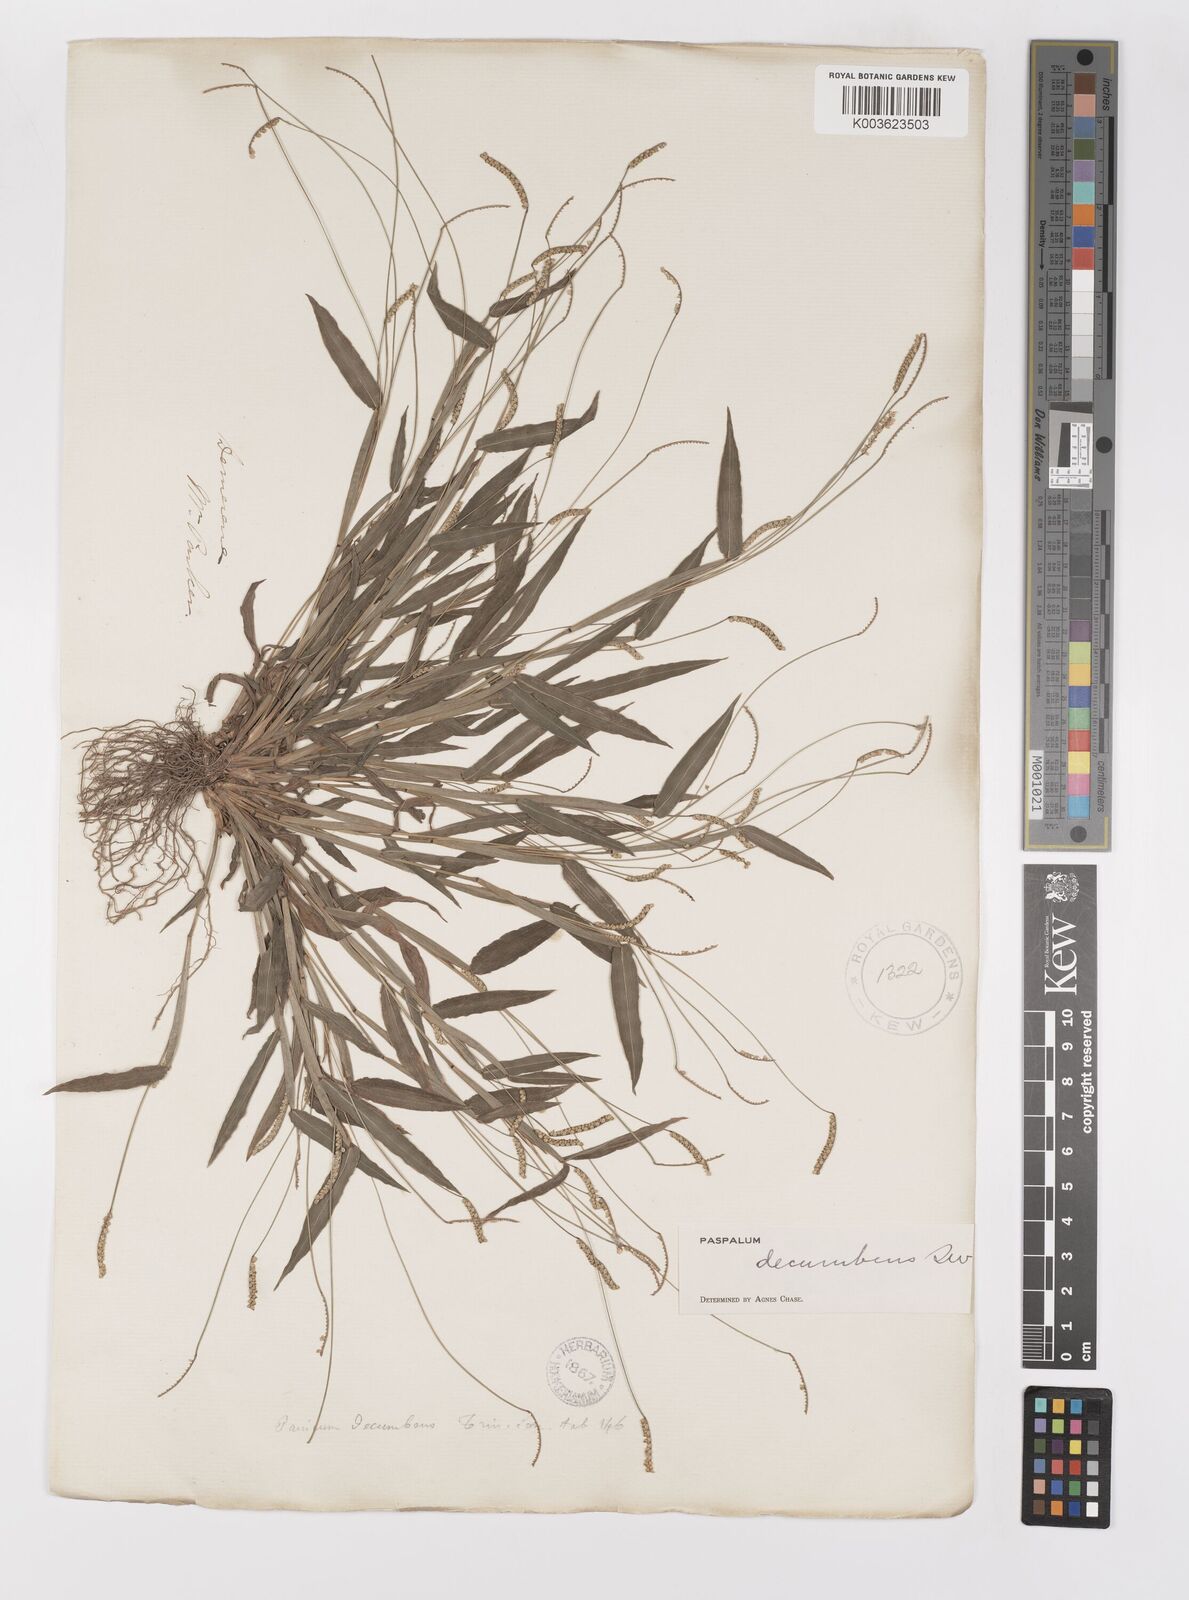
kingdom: Plantae
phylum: Tracheophyta
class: Liliopsida
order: Poales
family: Poaceae
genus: Paspalum
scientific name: Paspalum decumbens
